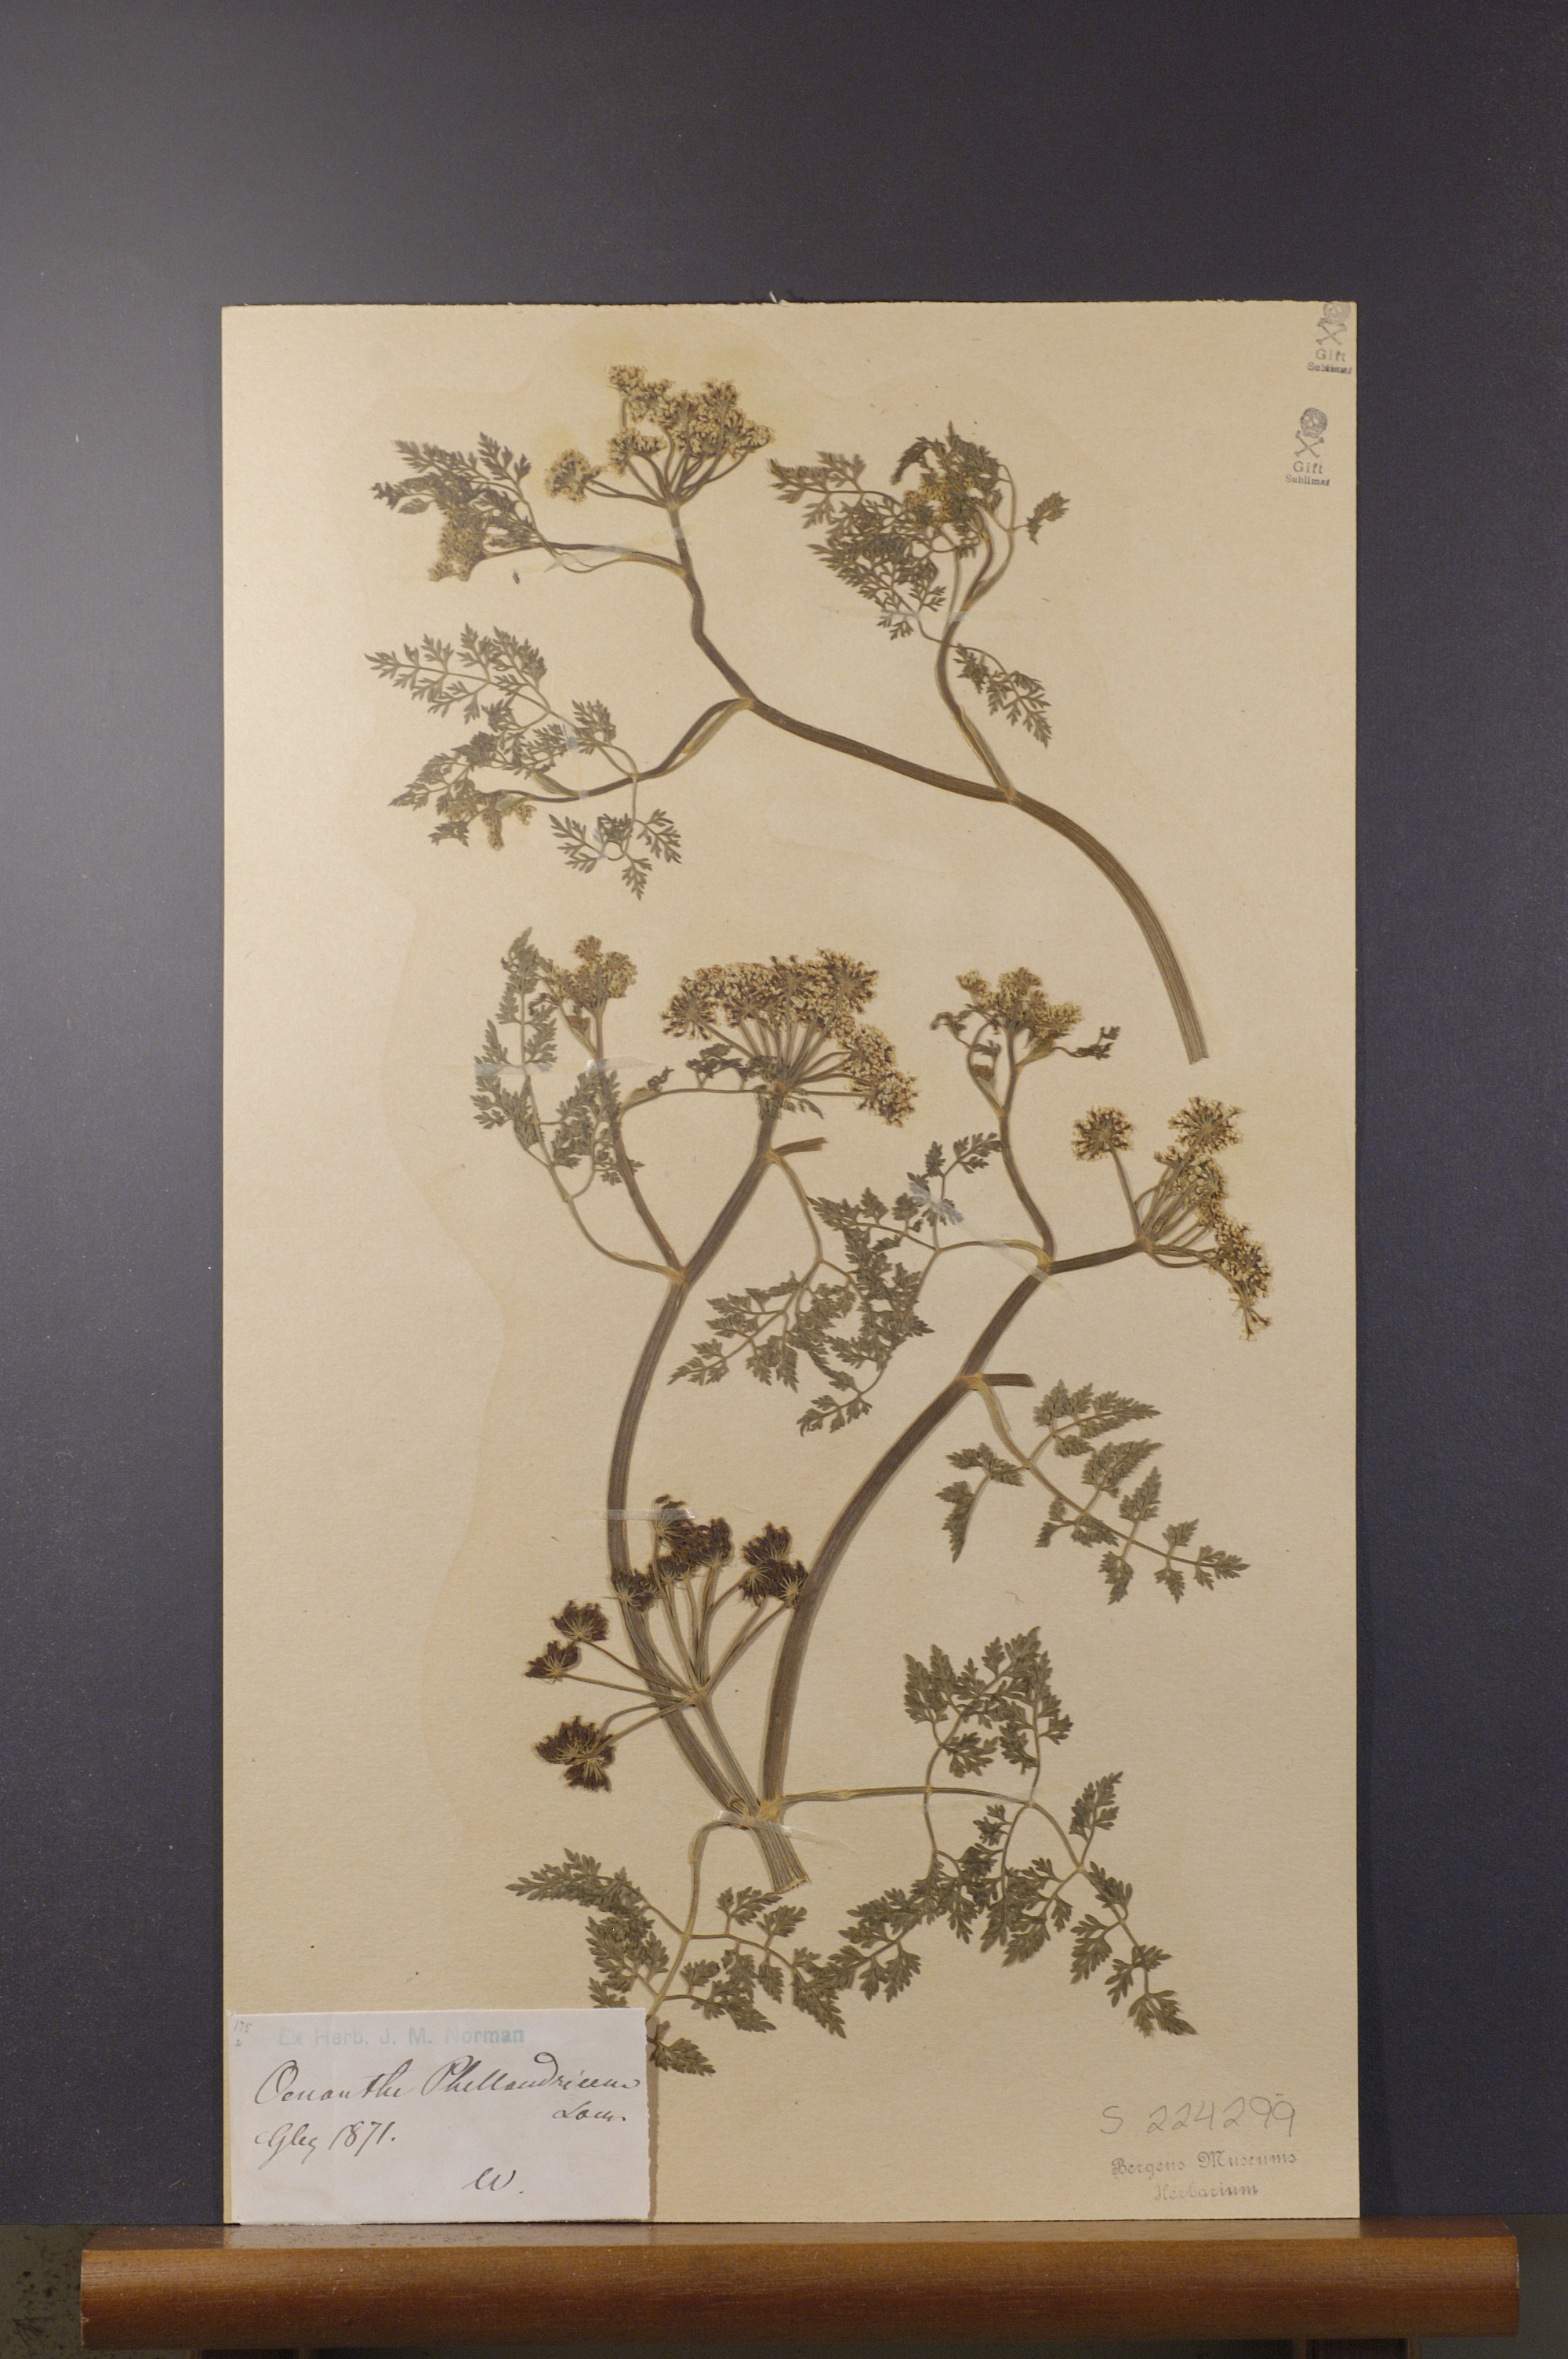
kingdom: Plantae
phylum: Tracheophyta
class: Magnoliopsida
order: Apiales
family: Apiaceae
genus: Oenanthe
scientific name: Oenanthe aquatica
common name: Fine-leaved water-dropwort
